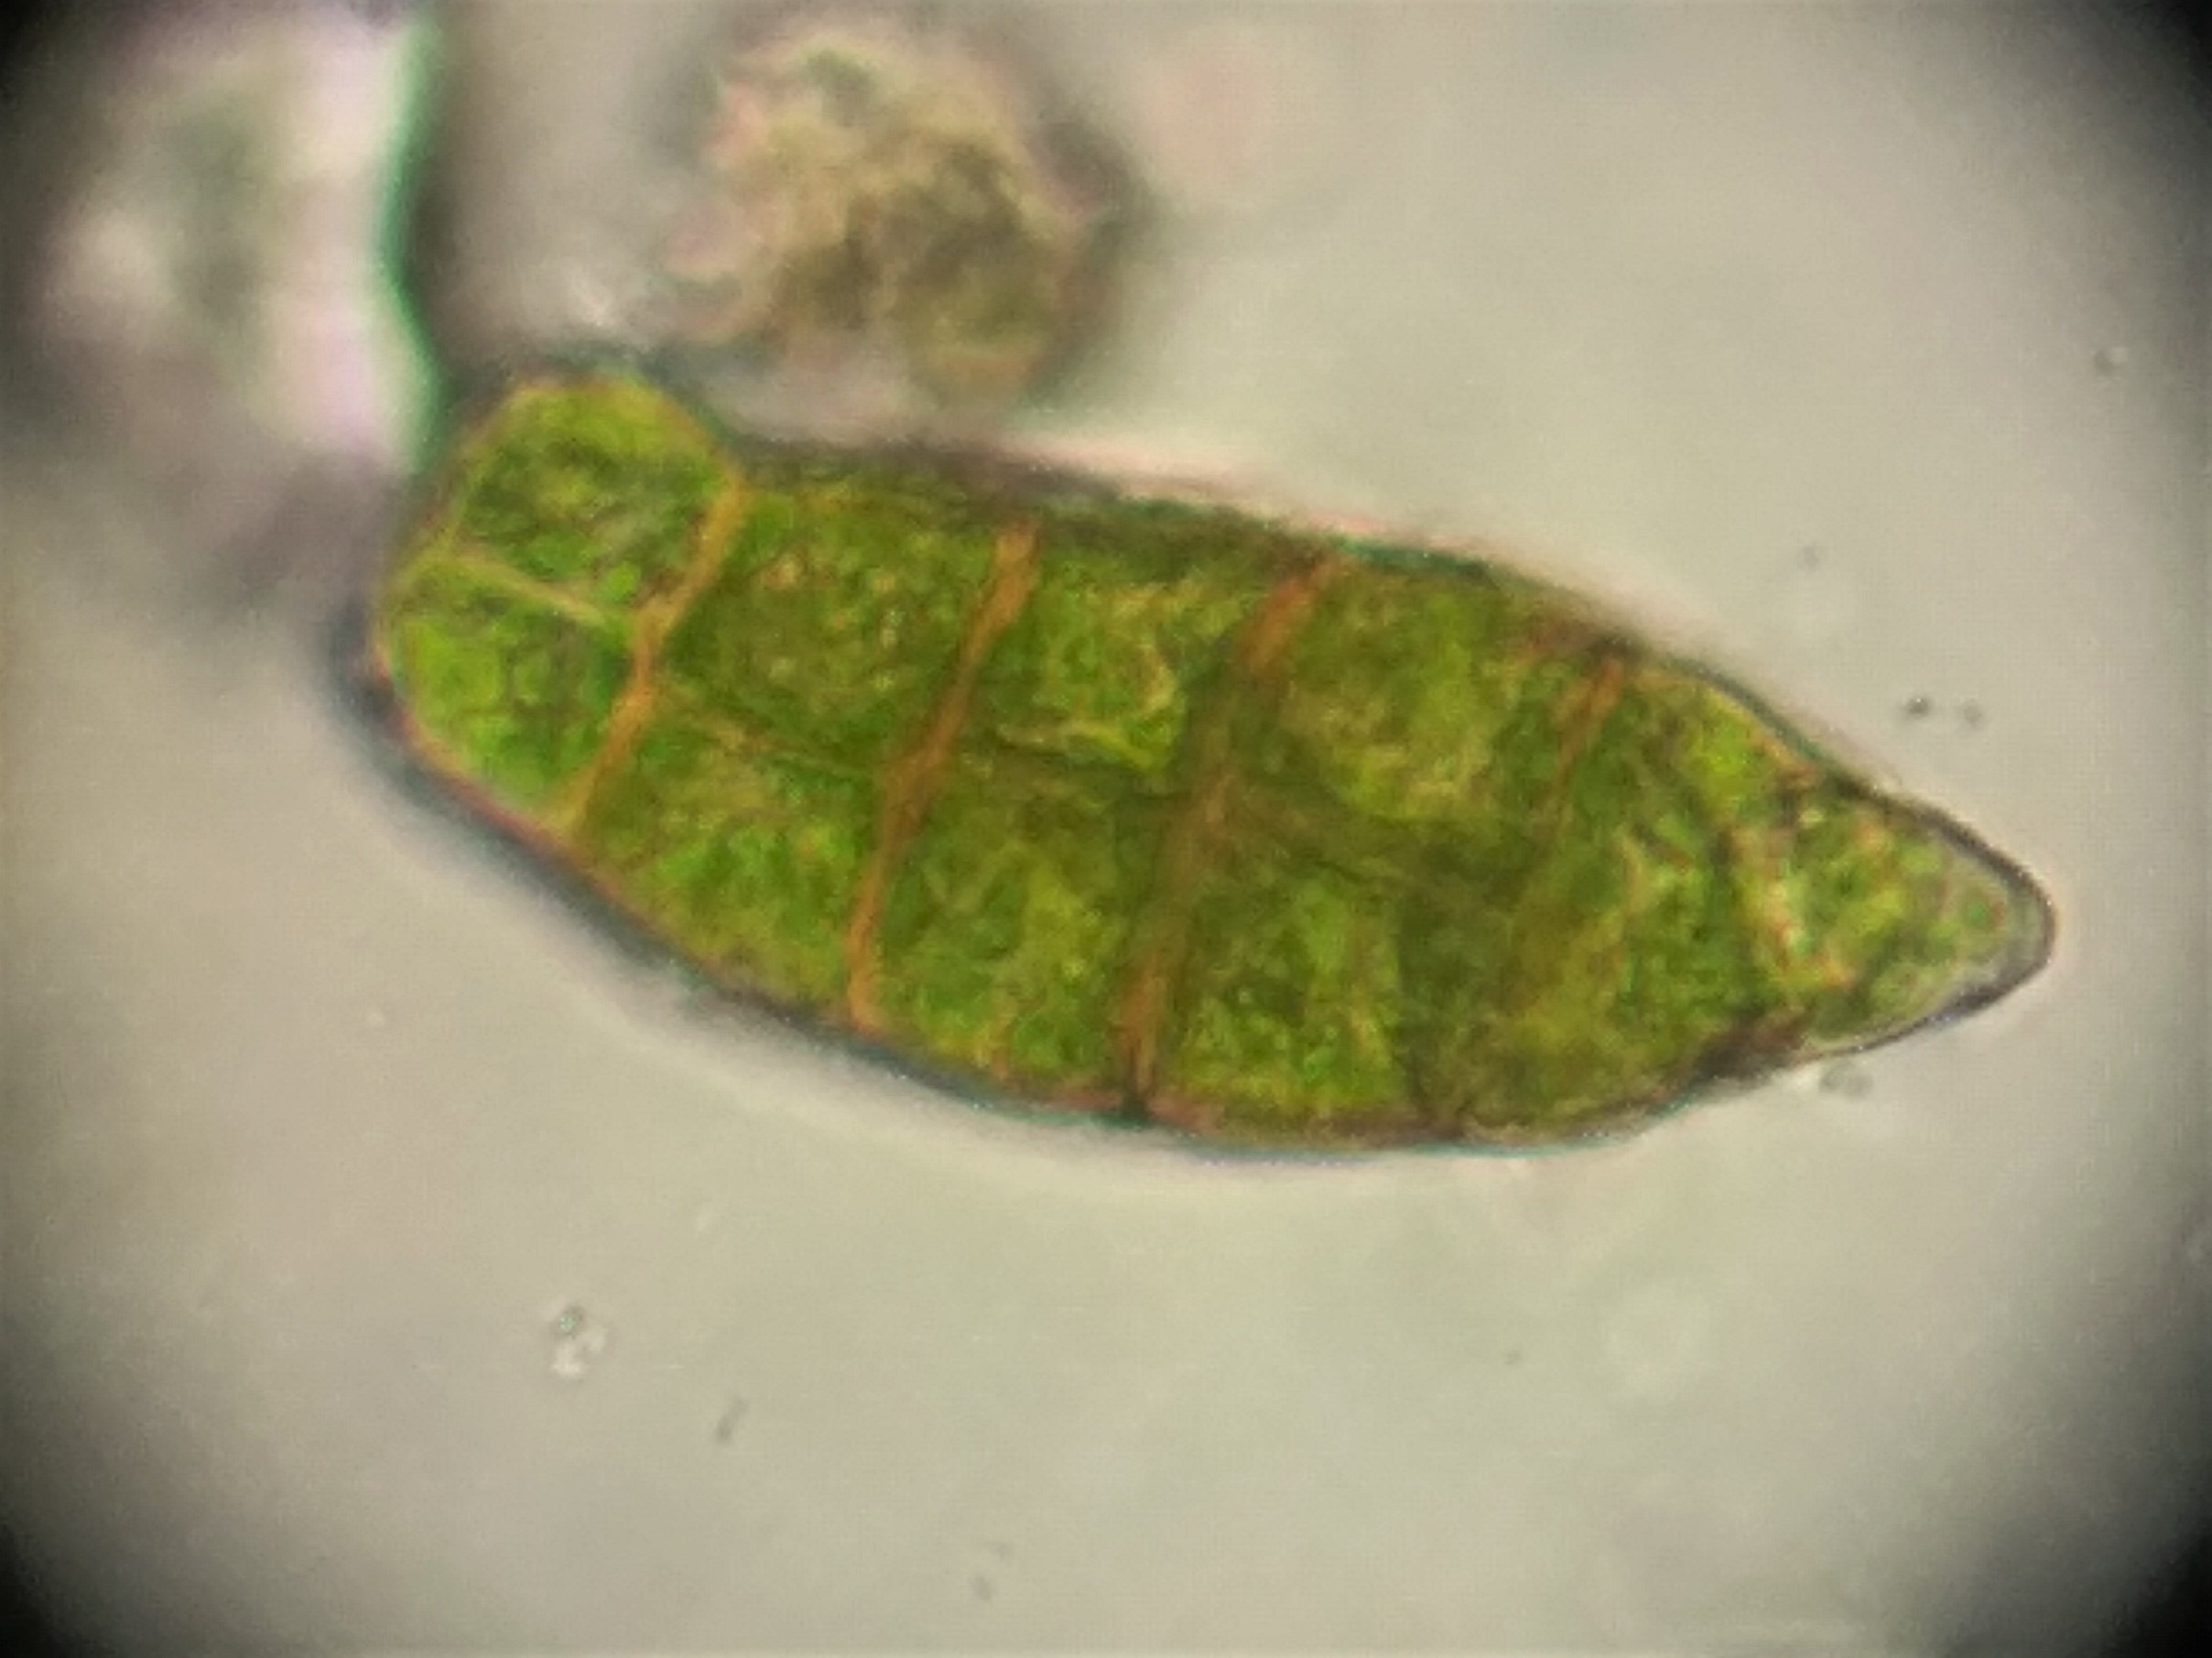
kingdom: Plantae
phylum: Bryophyta
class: Bryopsida
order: Orthotrichales
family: Orthotrichaceae
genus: Zygodon
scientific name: Zygodon viridissimus
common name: Grøn køllemos
